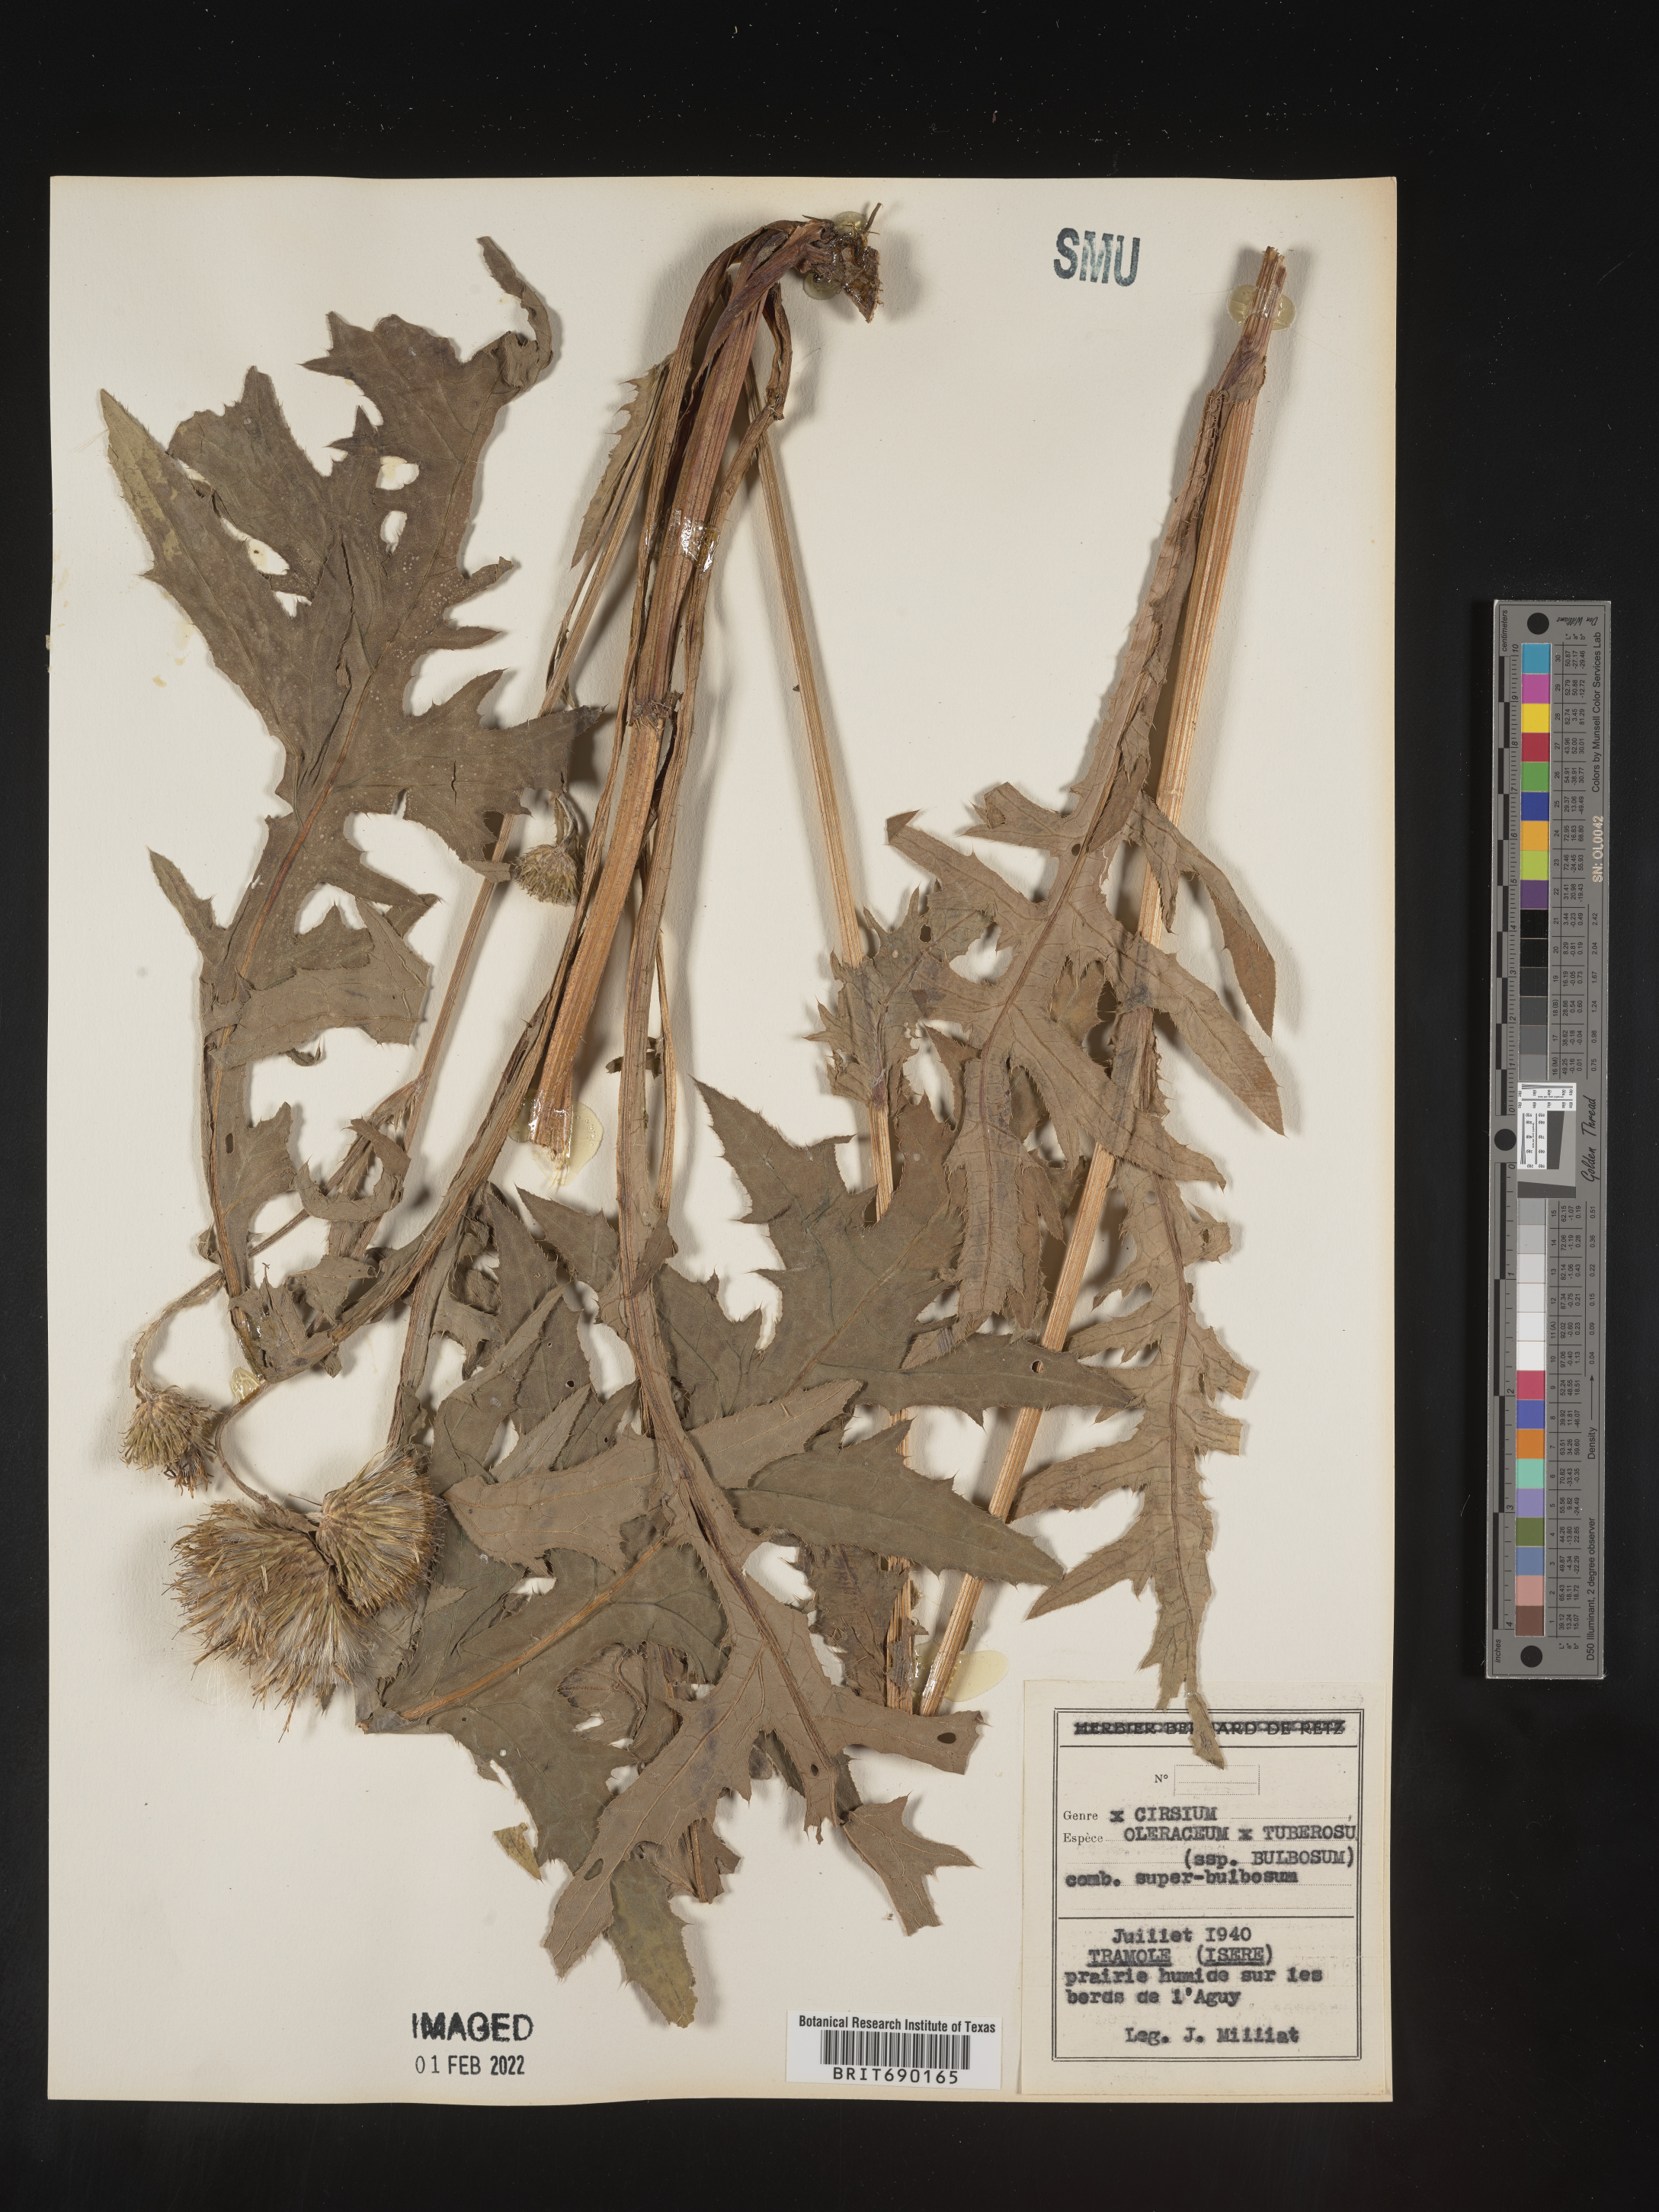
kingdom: Plantae
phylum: Tracheophyta
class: Magnoliopsida
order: Asterales
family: Asteraceae
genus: Cirsium
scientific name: Cirsium
